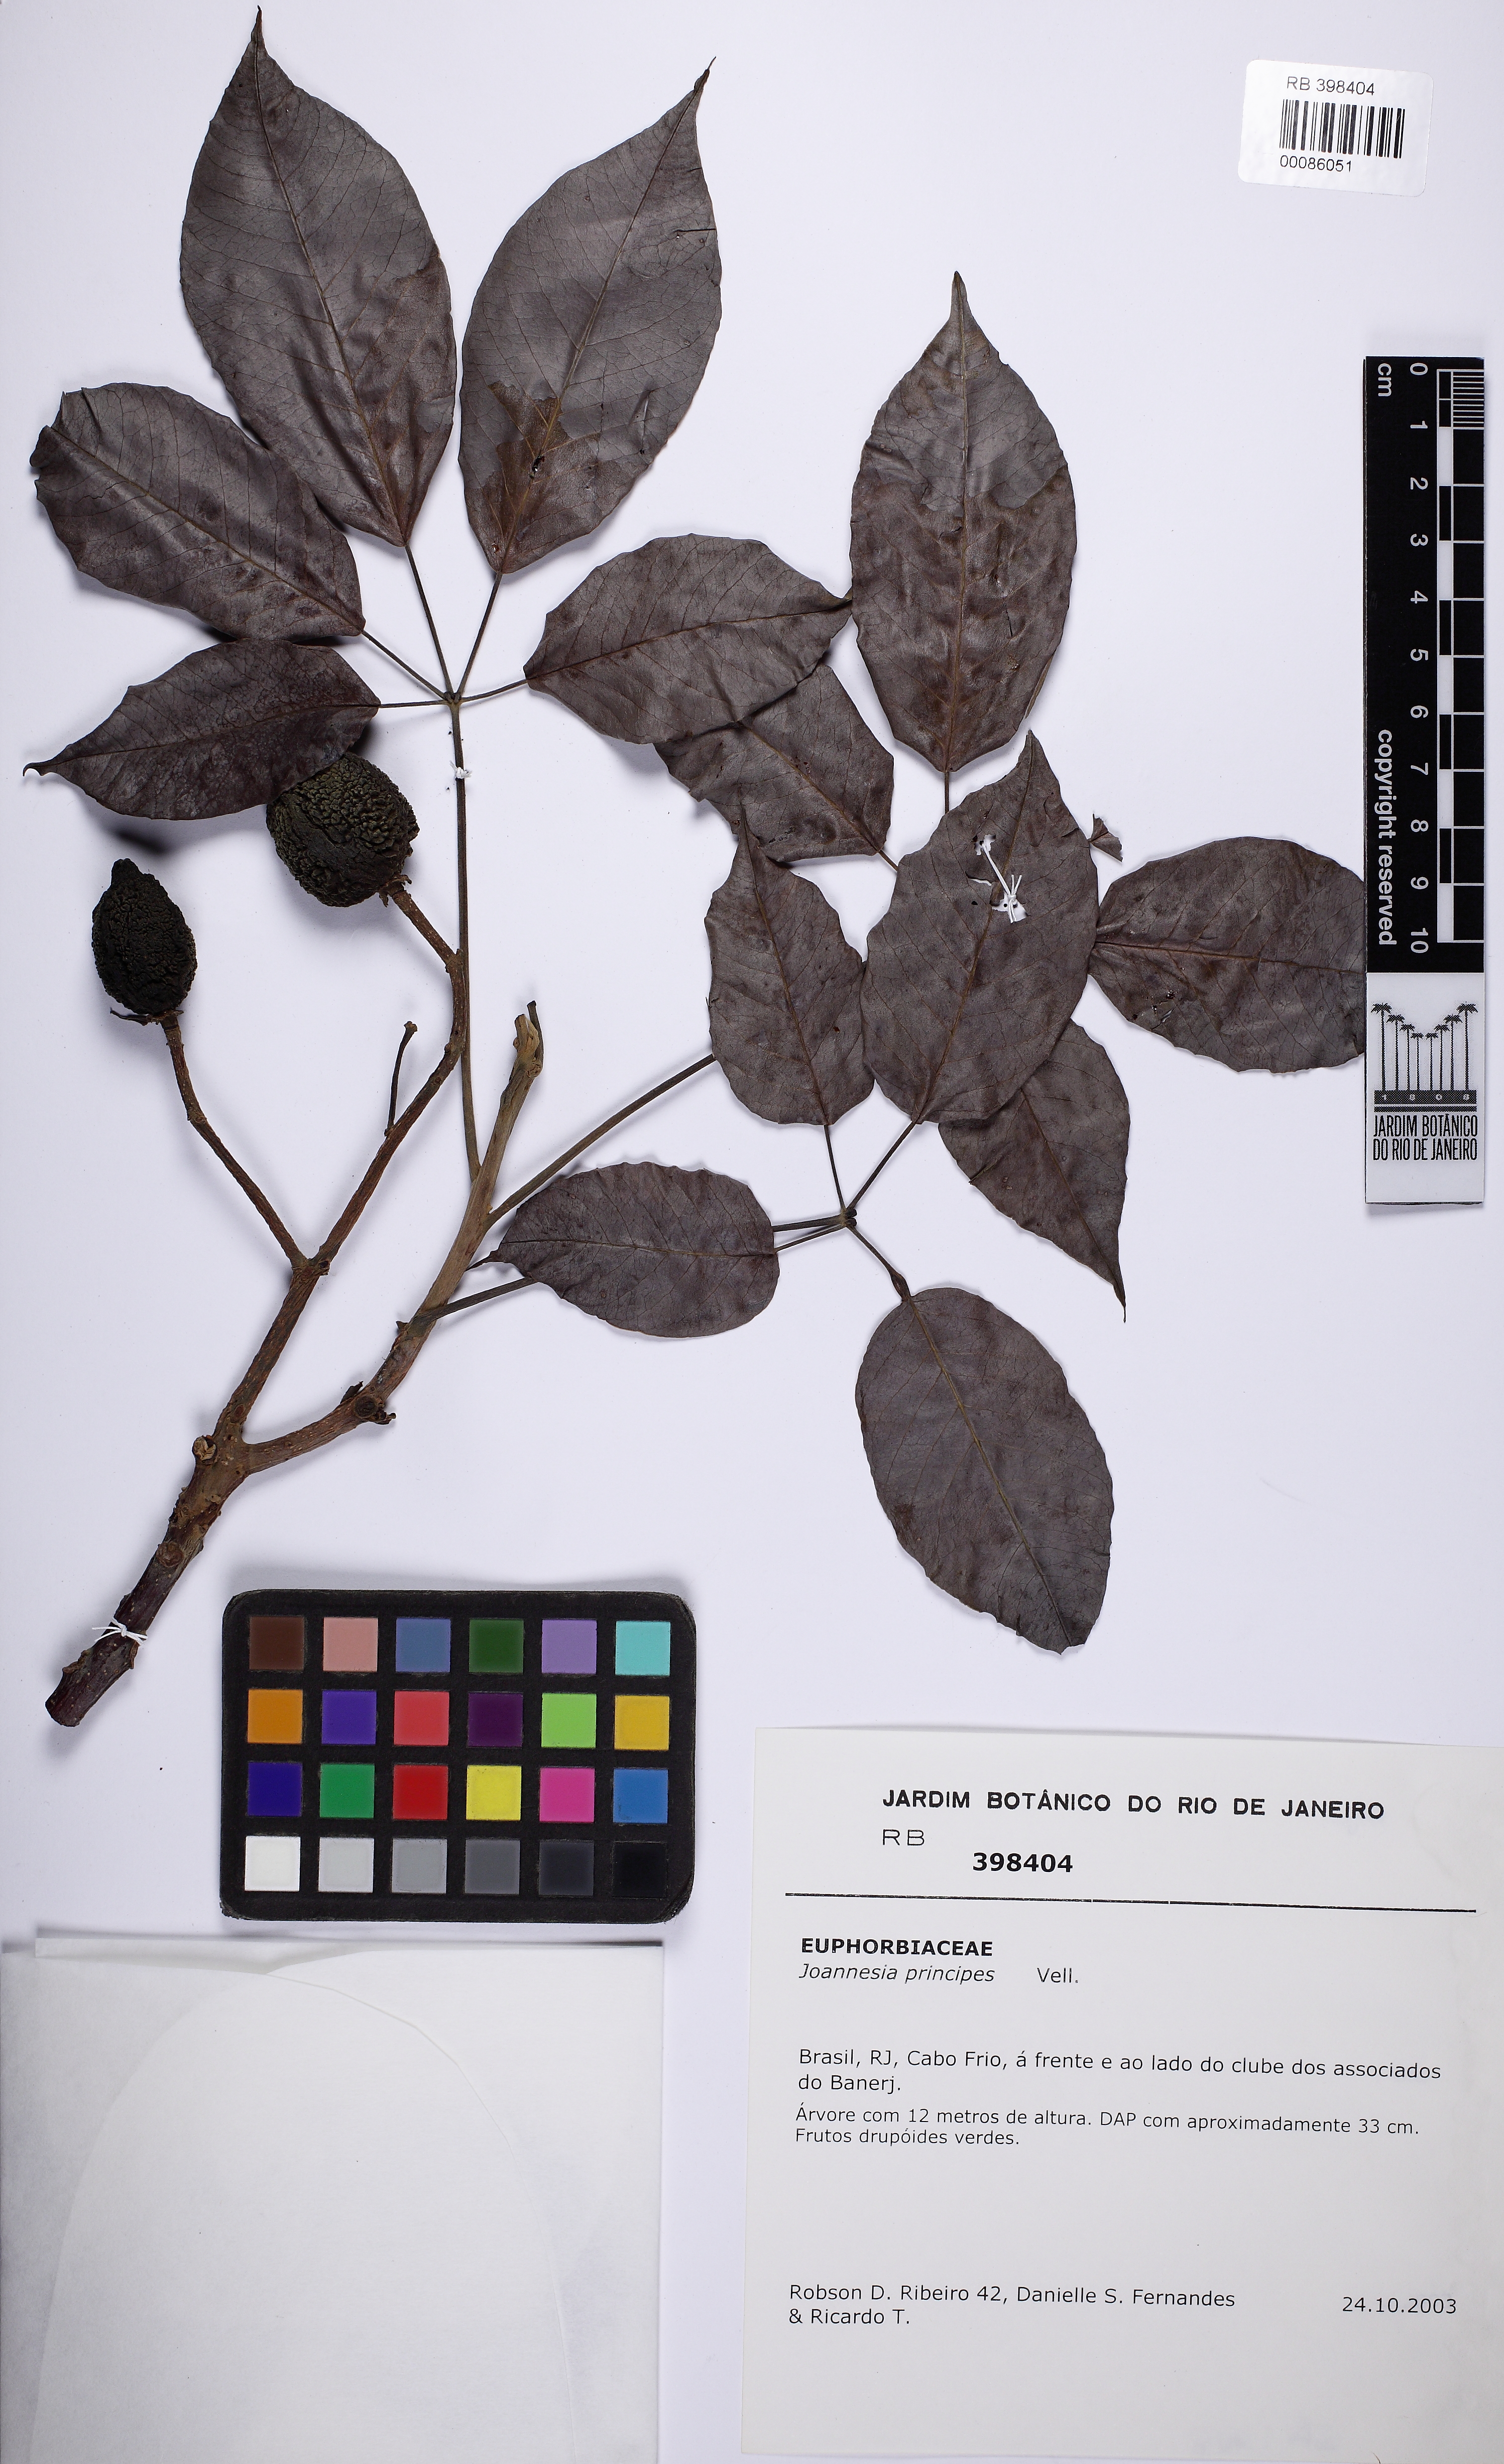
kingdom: Plantae
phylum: Tracheophyta
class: Magnoliopsida
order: Malpighiales
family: Euphorbiaceae
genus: Joannesia
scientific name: Joannesia princeps
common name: Arara nut-tree
